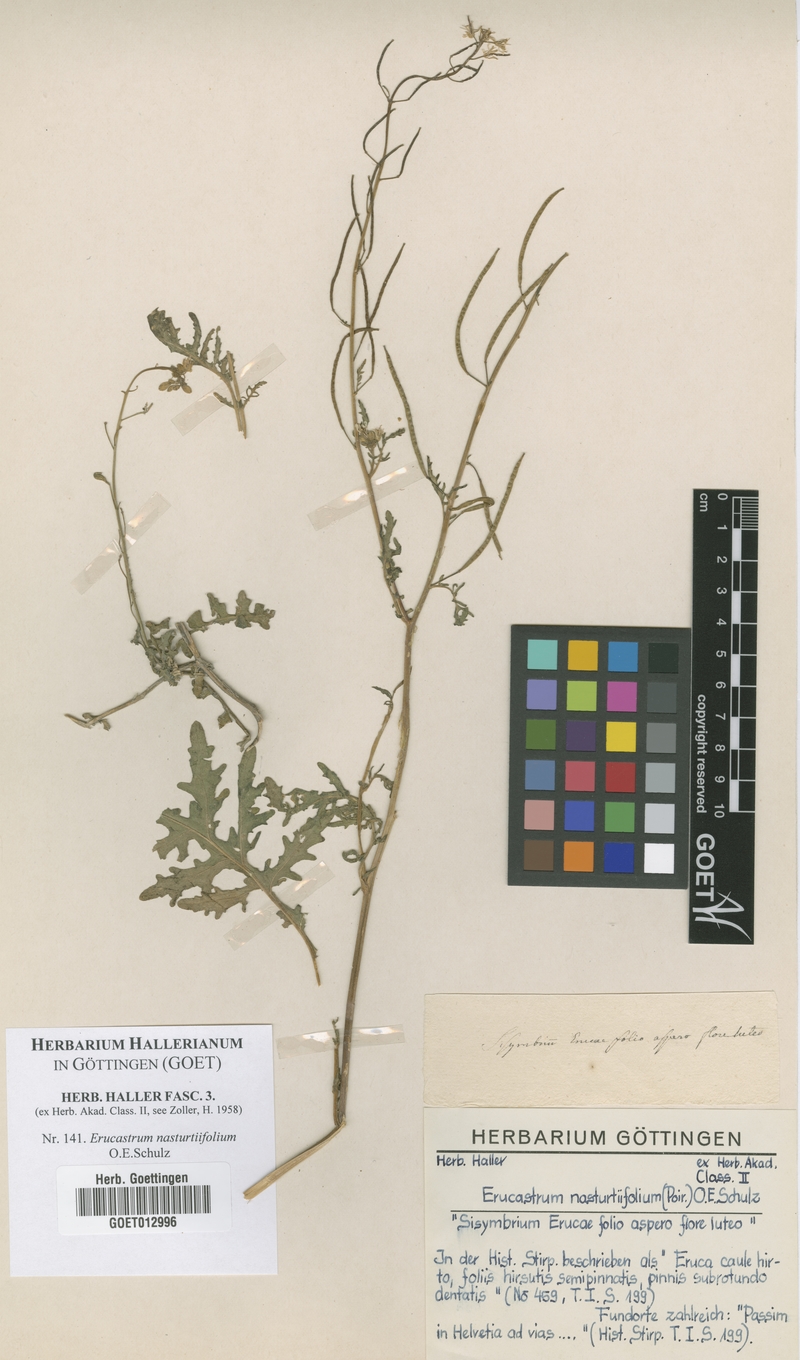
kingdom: Plantae
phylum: Tracheophyta
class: Magnoliopsida
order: Brassicales
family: Brassicaceae
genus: Erucastrum
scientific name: Erucastrum nasturtiifolium
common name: Watercress-leaf rocket
